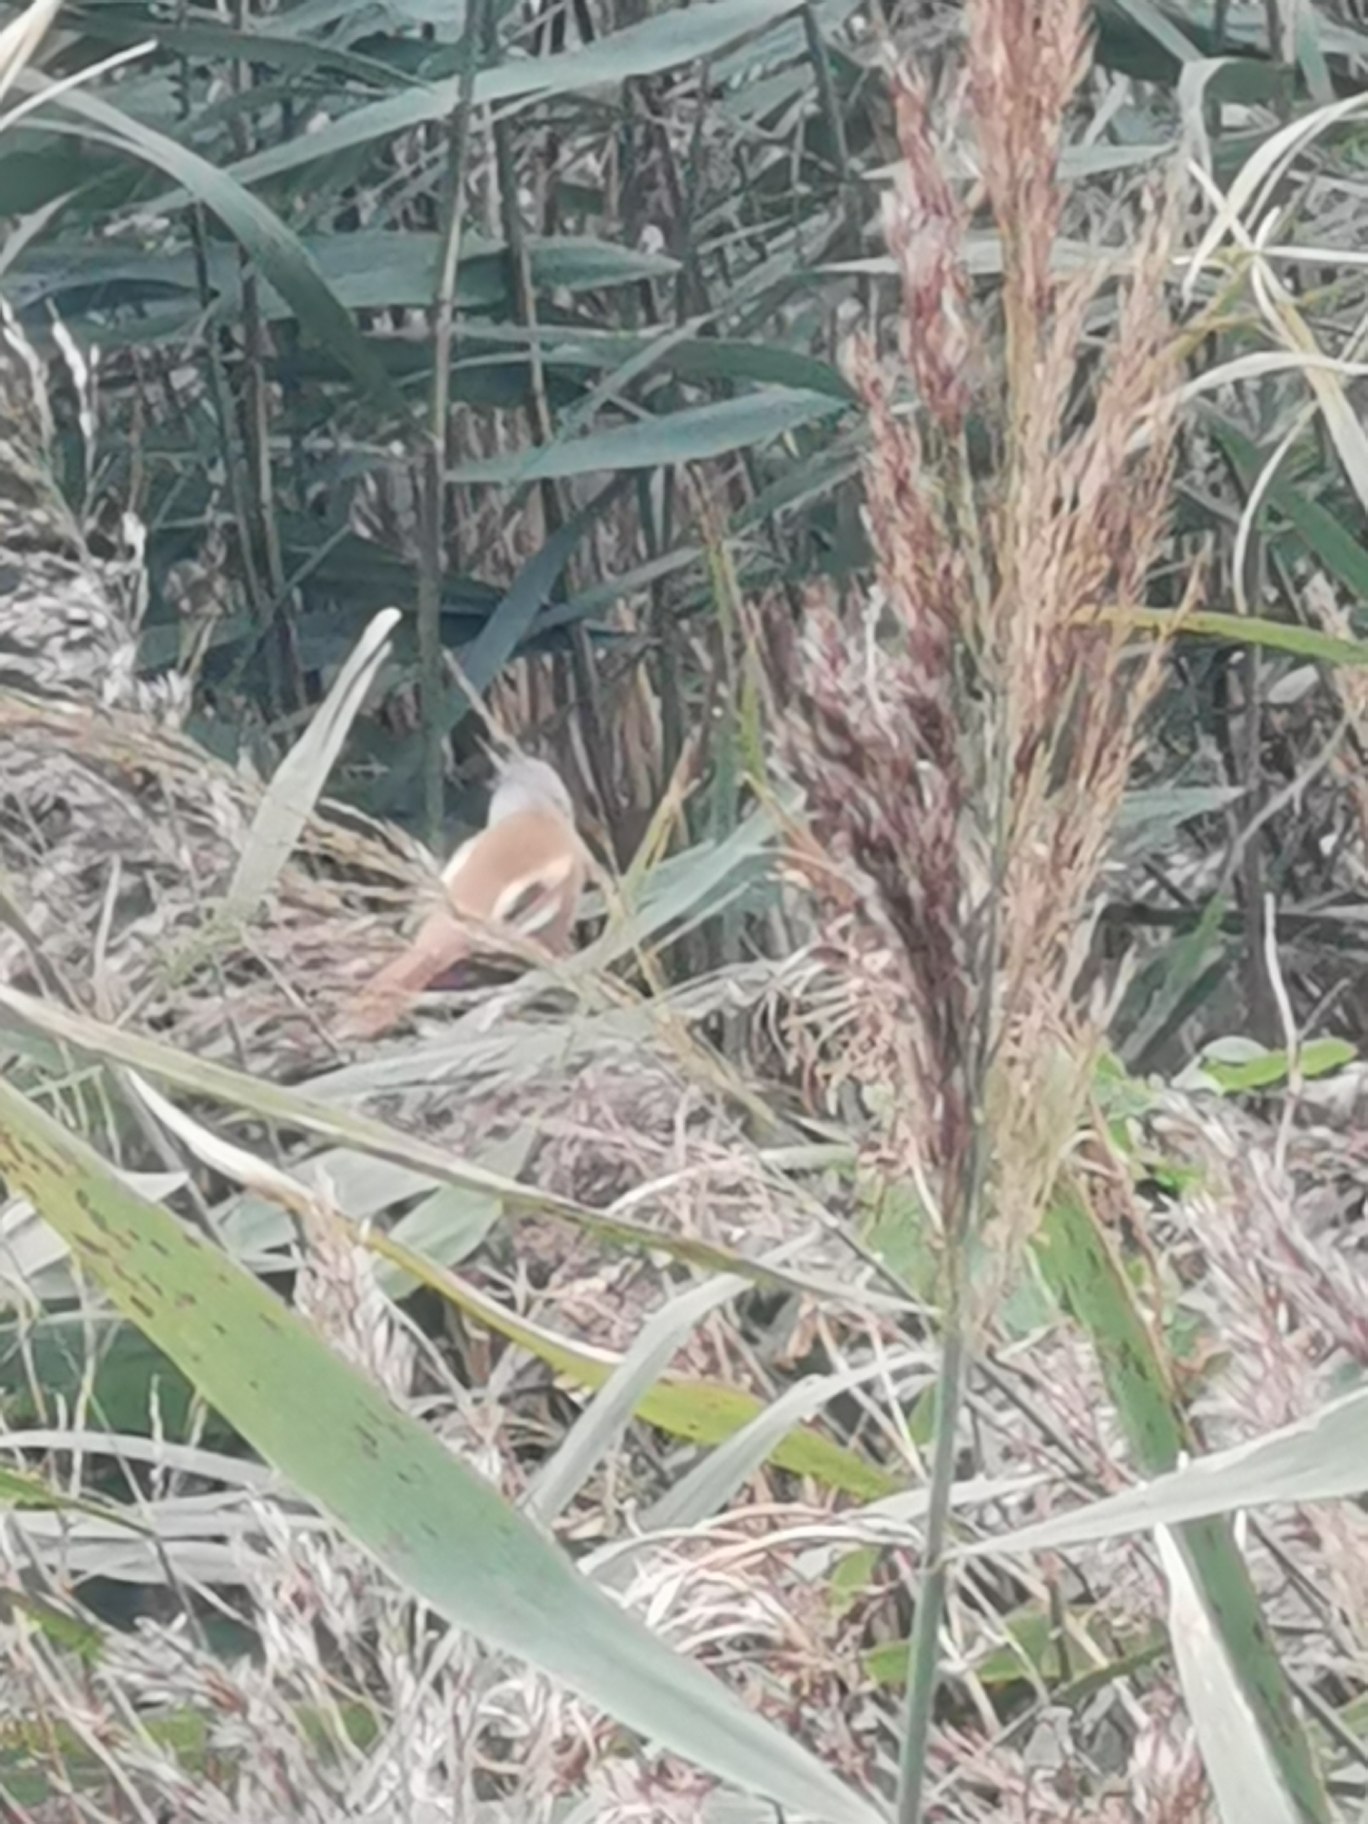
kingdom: Animalia
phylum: Chordata
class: Aves
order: Passeriformes
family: Panuridae
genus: Panurus
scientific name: Panurus biarmicus
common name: Skægmejse
